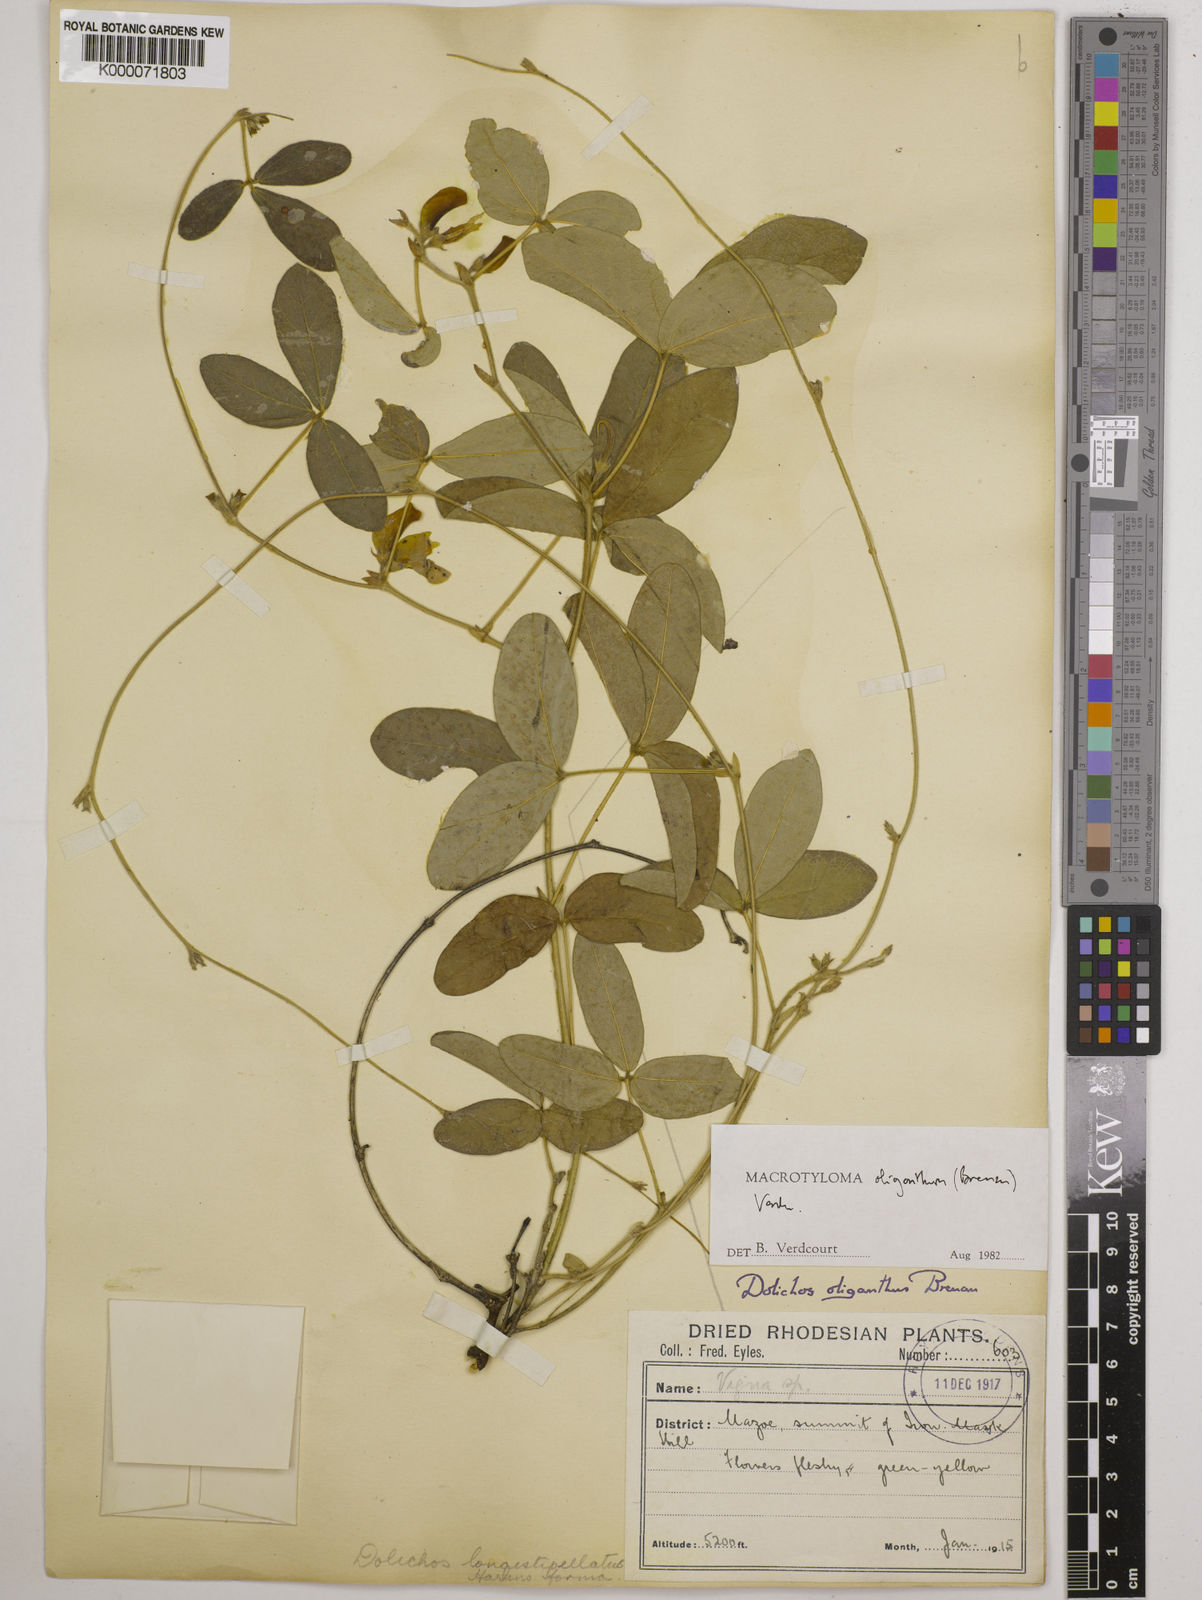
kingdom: Plantae
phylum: Tracheophyta
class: Magnoliopsida
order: Fabales
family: Fabaceae
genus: Macrotyloma
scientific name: Macrotyloma oliganthum
